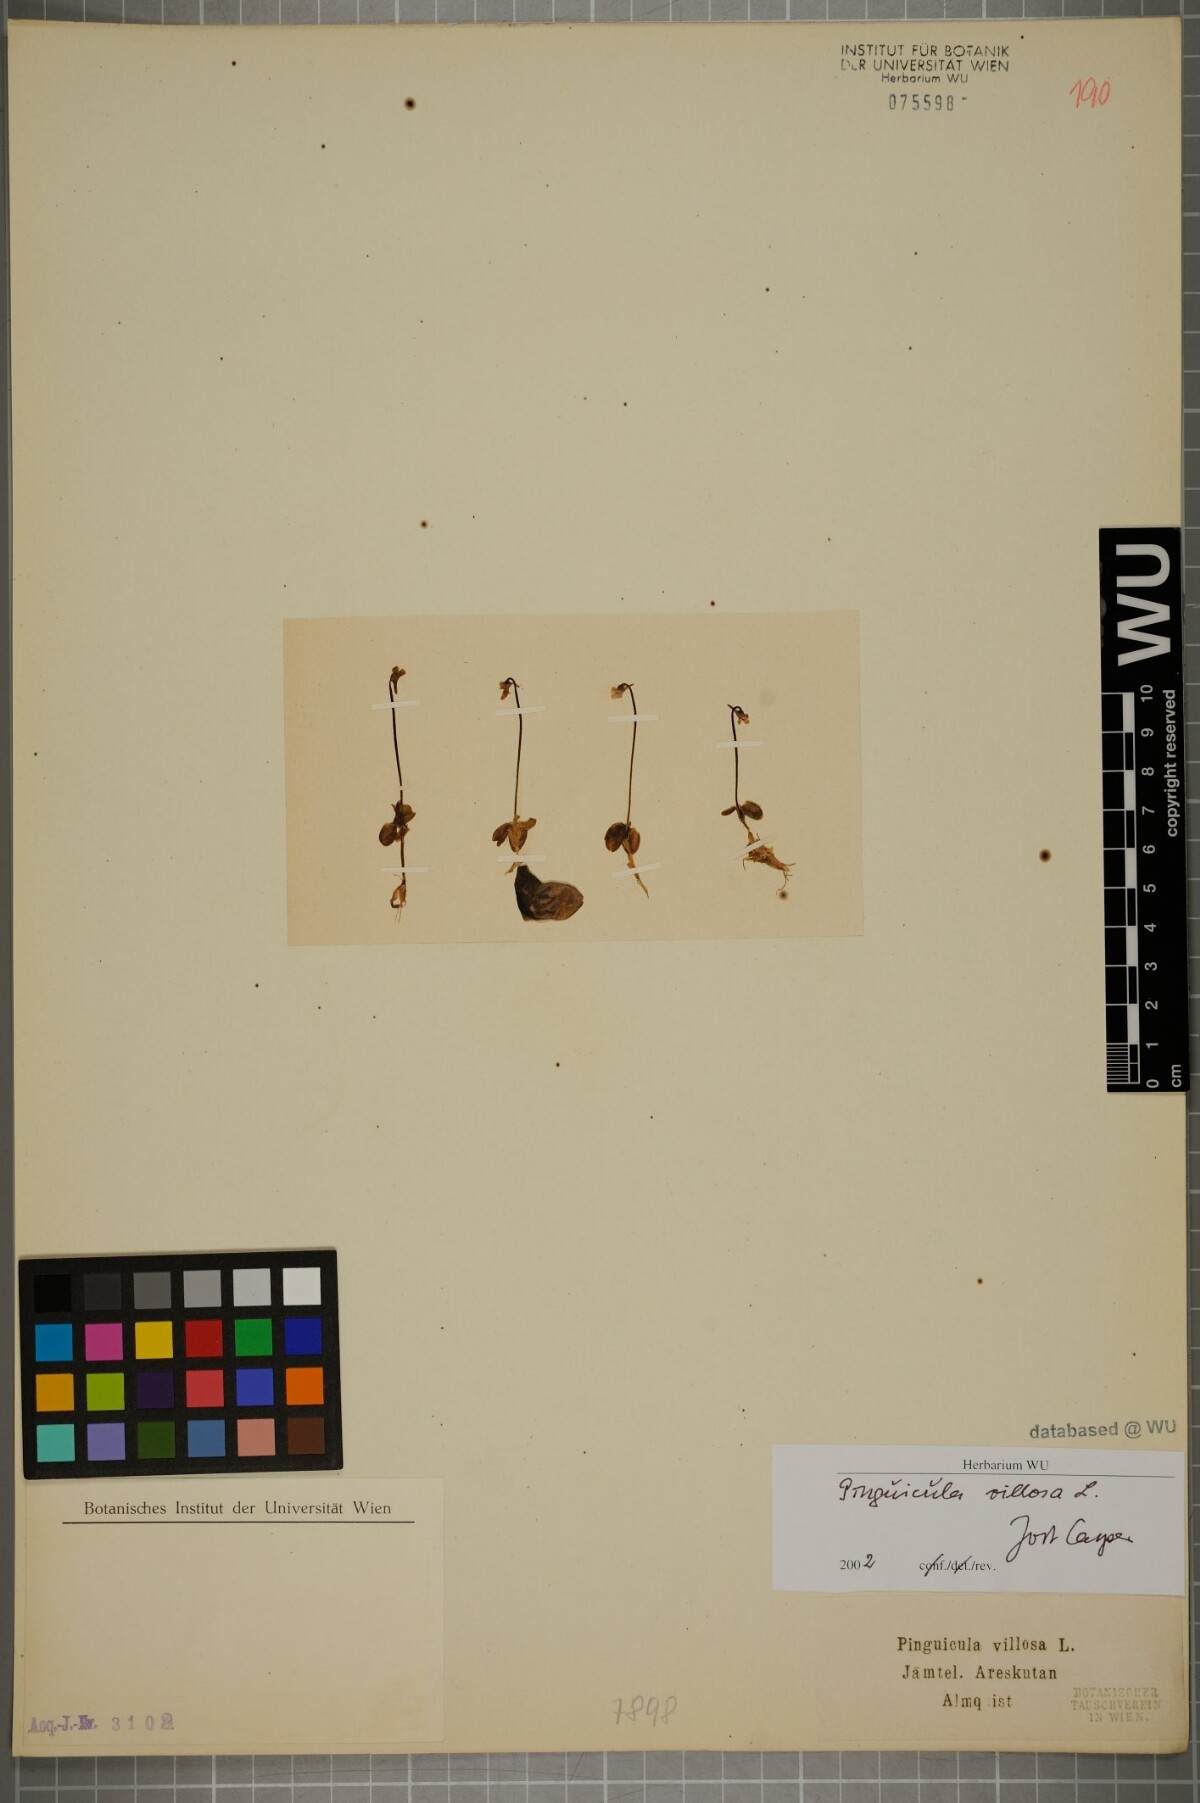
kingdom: Plantae
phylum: Tracheophyta
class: Magnoliopsida
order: Lamiales
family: Lentibulariaceae
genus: Pinguicula
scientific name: Pinguicula villosa
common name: Hairy butterwort
